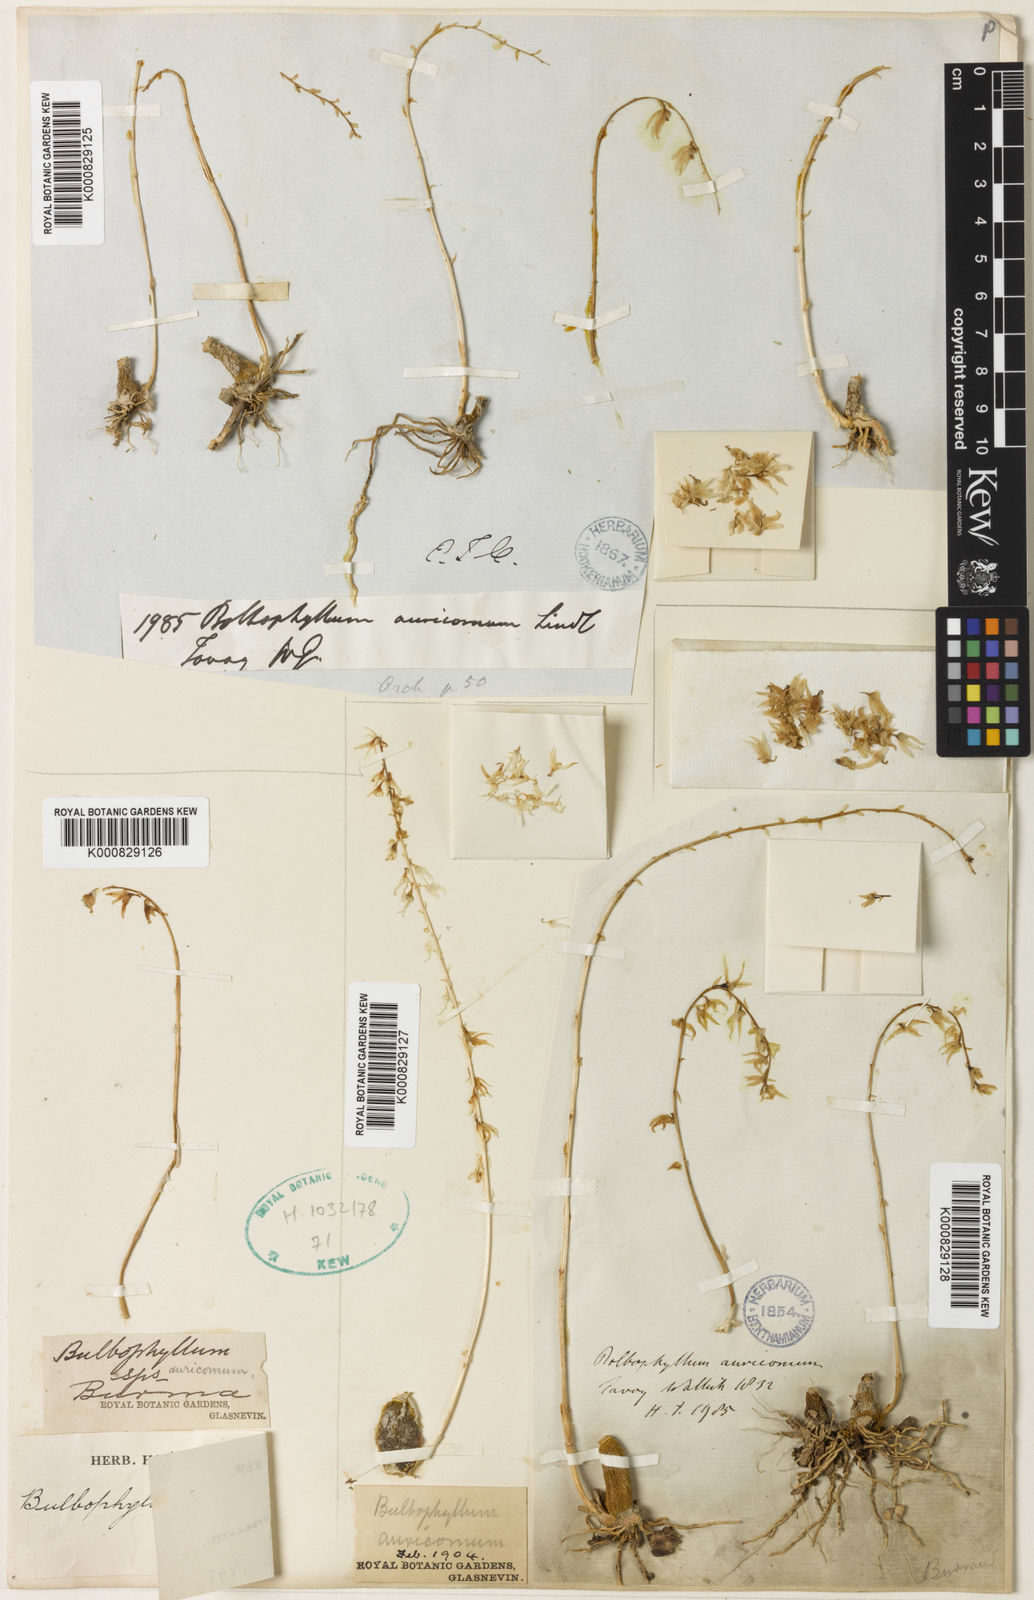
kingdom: Plantae
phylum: Tracheophyta
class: Liliopsida
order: Asparagales
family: Orchidaceae
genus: Bulbophyllum
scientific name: Bulbophyllum auricomum
